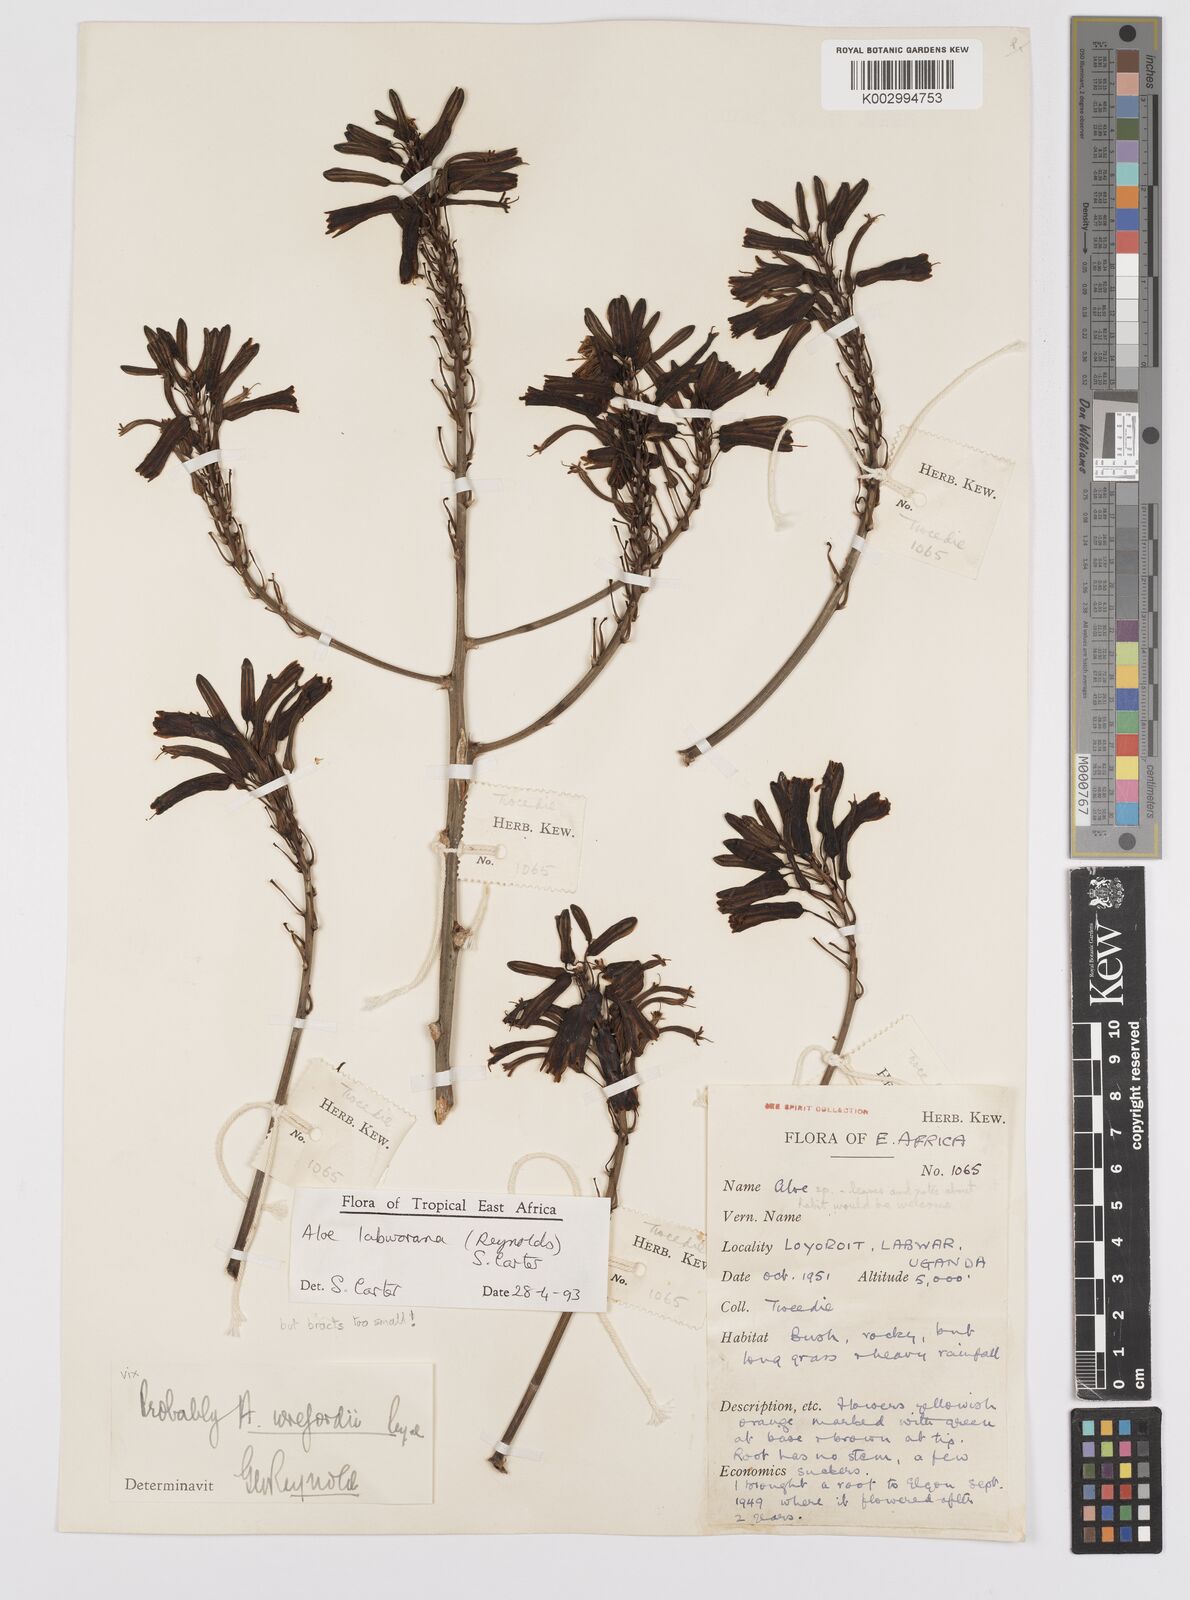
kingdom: Plantae
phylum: Tracheophyta
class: Liliopsida
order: Asparagales
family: Asphodelaceae
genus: Aloe
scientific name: Aloe labworana
